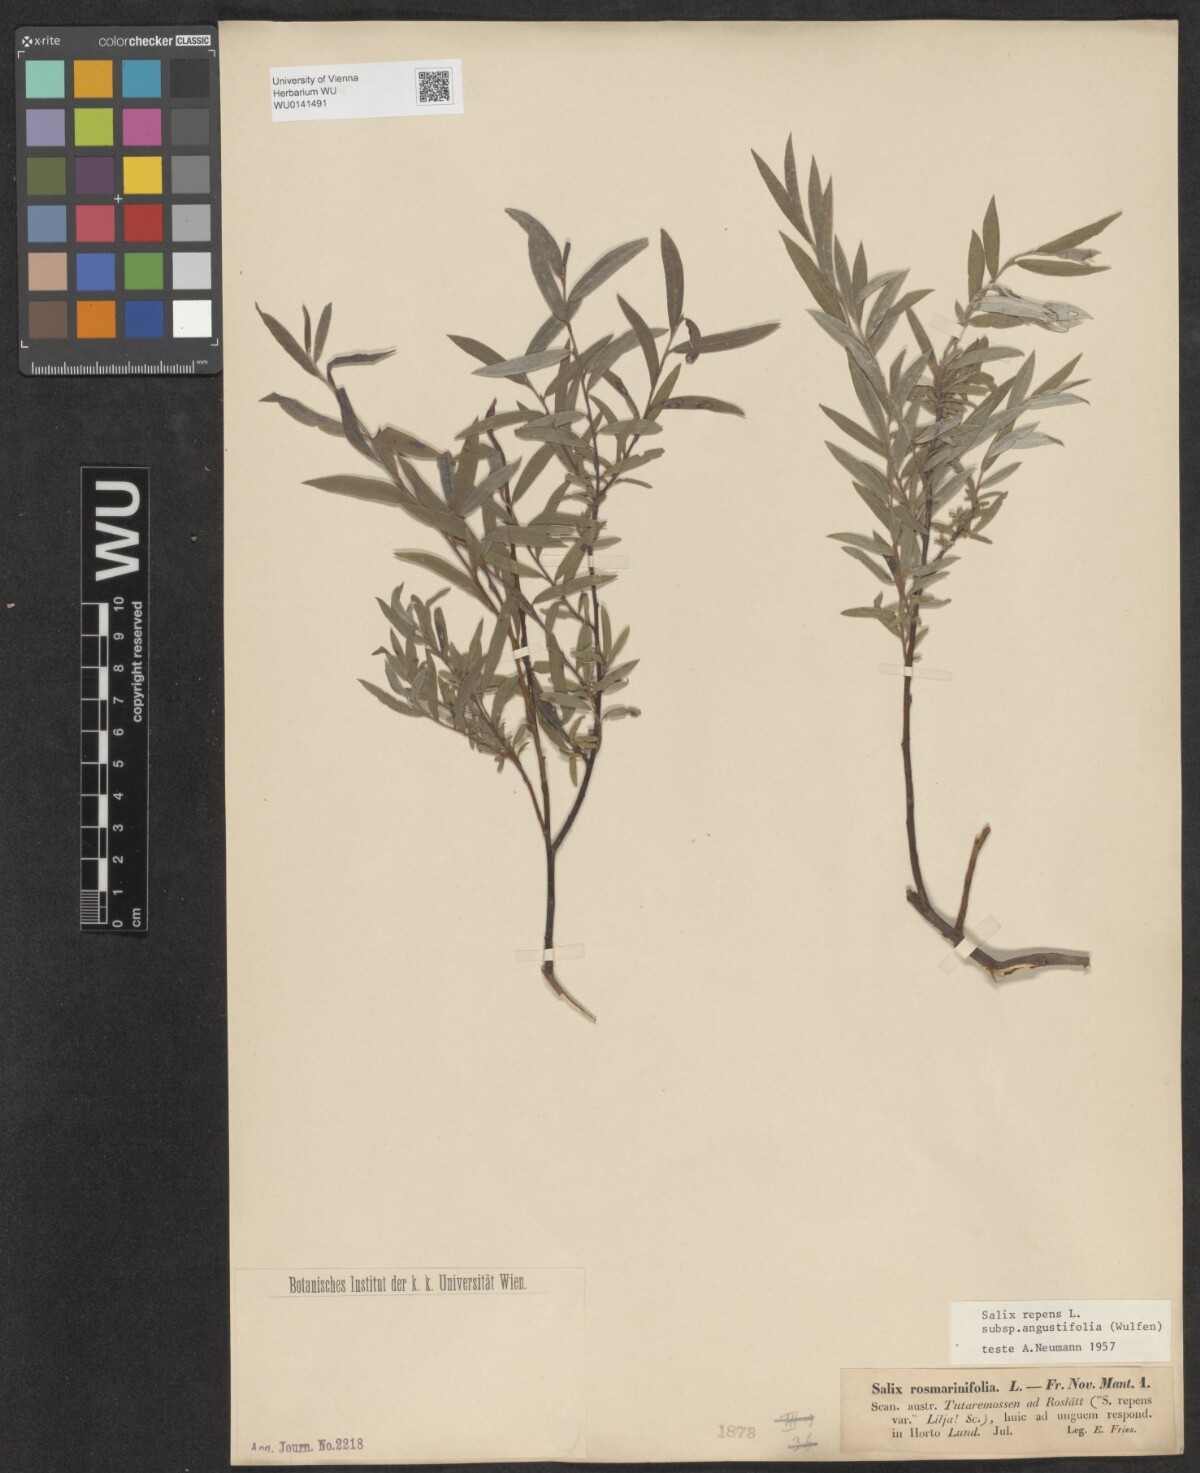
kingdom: Plantae
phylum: Tracheophyta
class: Magnoliopsida
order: Malpighiales
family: Salicaceae
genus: Salix
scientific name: Salix rosmarinifolia
